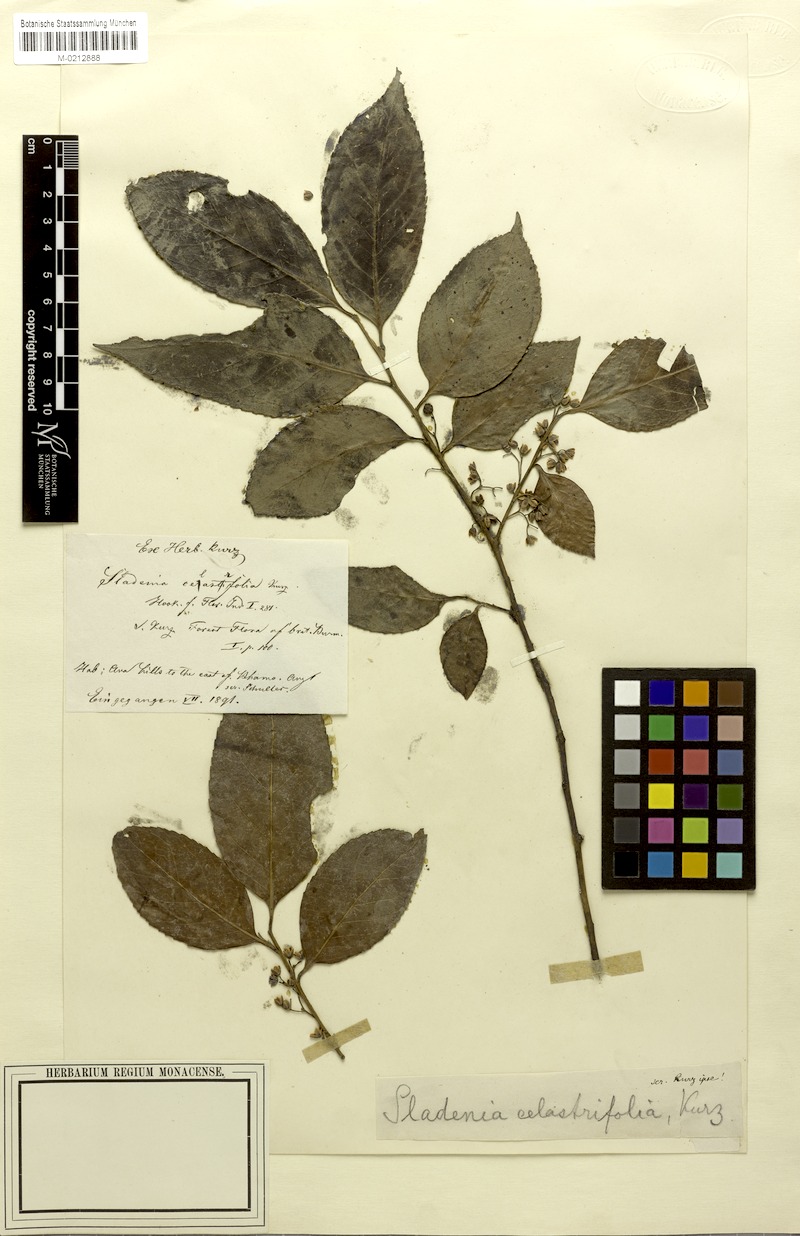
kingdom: Plantae
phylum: Tracheophyta
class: Magnoliopsida
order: Ericales
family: Sladeniaceae
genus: Sladenia
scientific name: Sladenia celastrifolia
